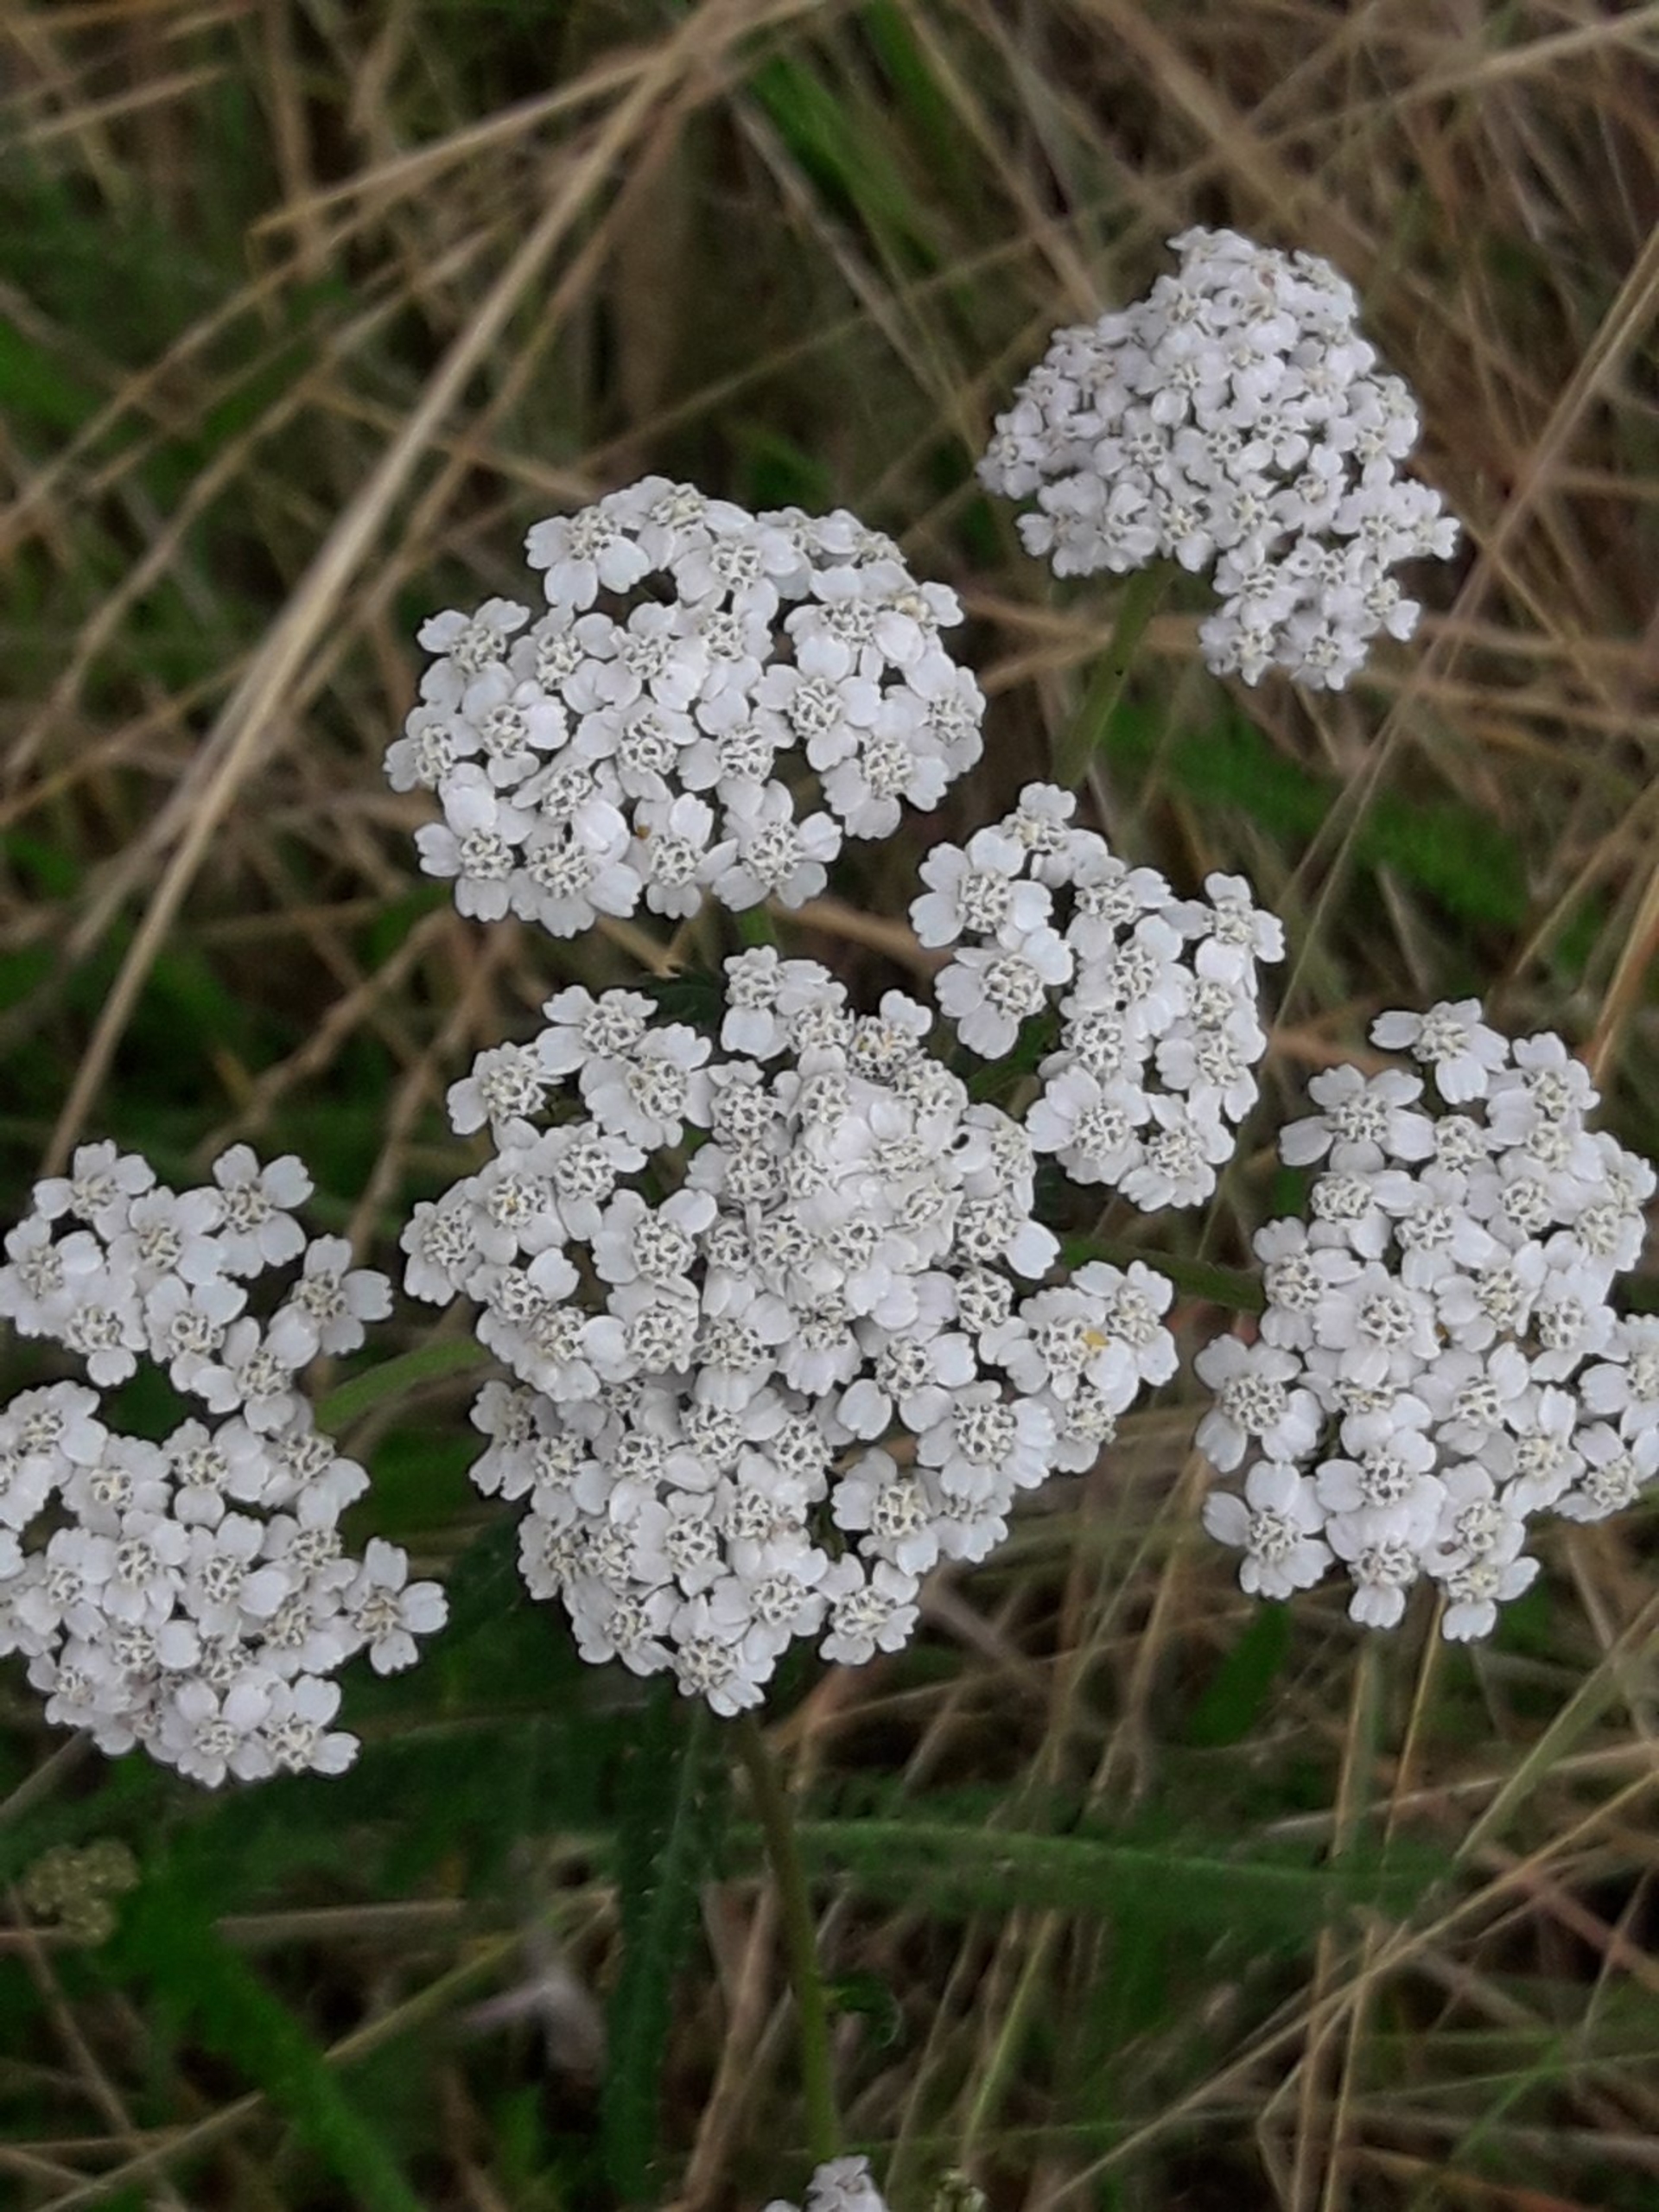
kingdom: Plantae
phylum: Tracheophyta
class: Magnoliopsida
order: Asterales
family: Asteraceae
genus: Achillea
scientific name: Achillea millefolium
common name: Almindelig røllike
